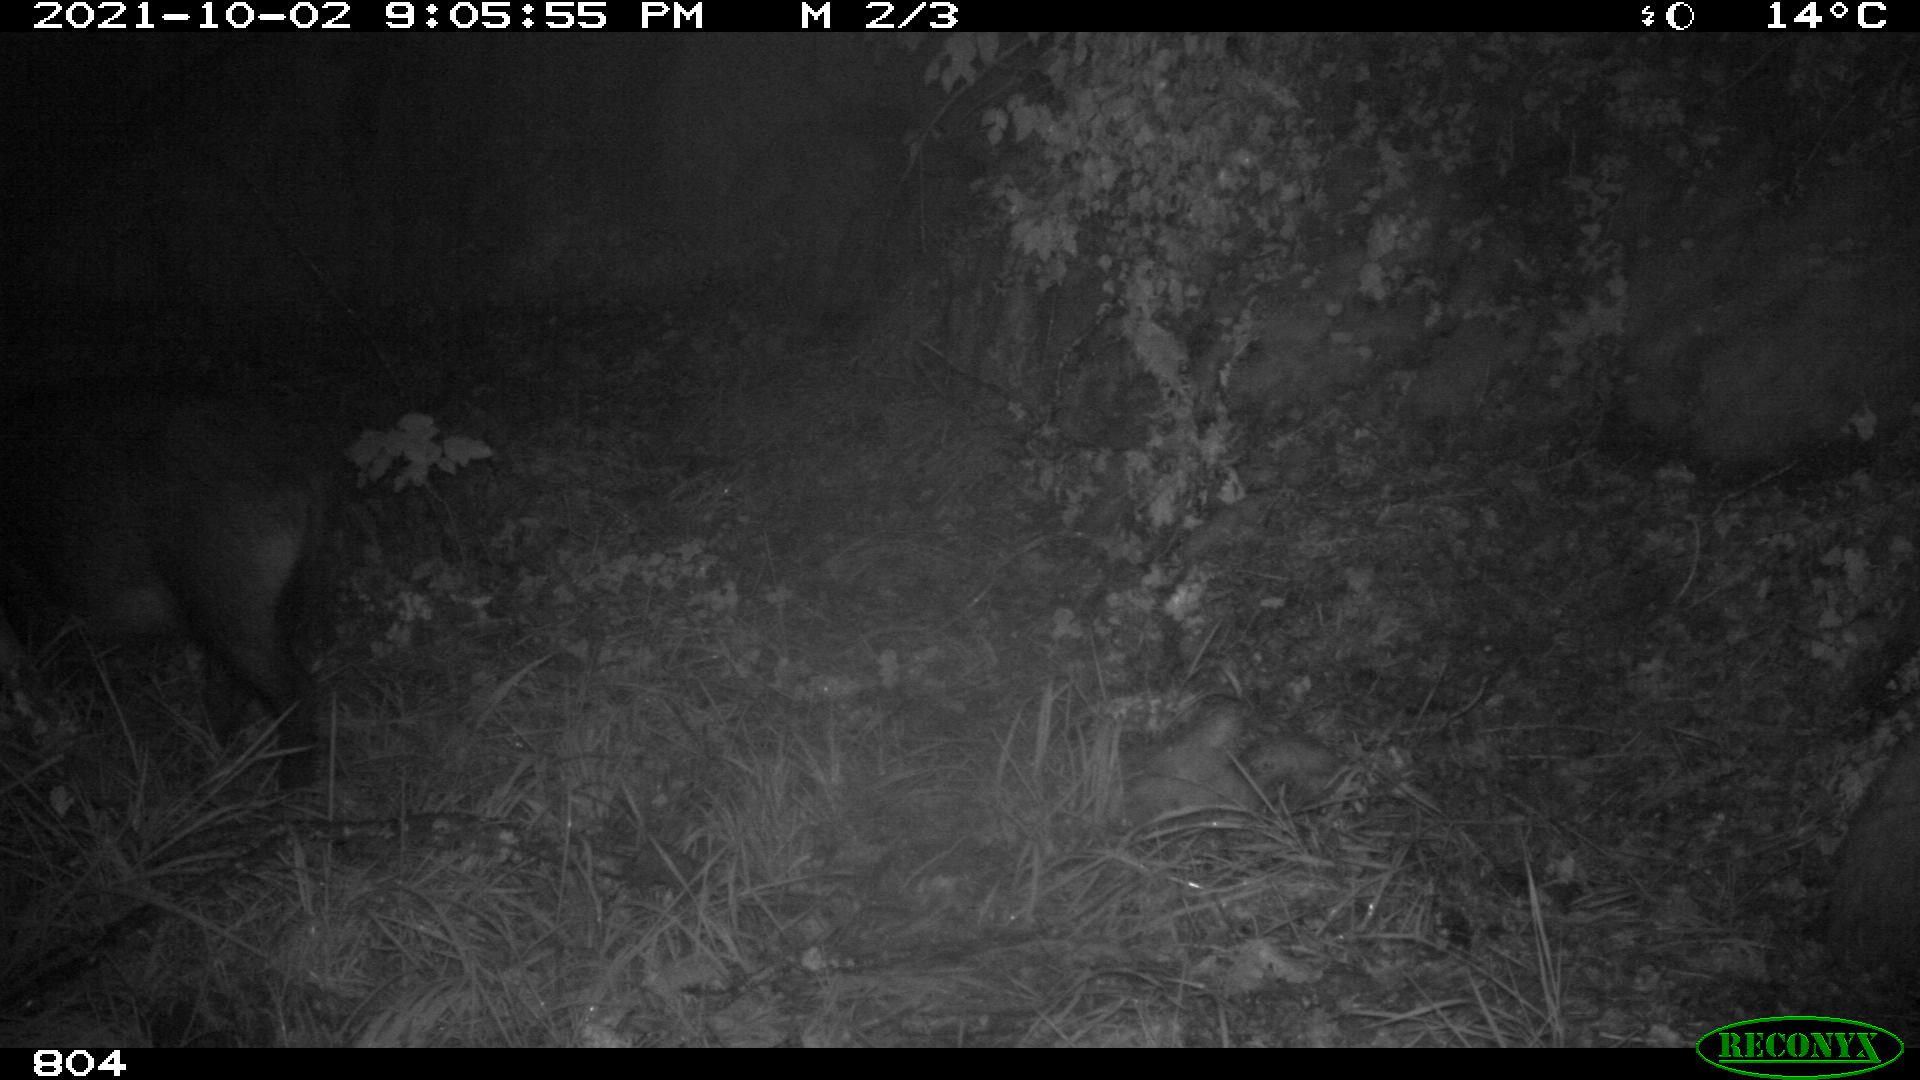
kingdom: Animalia
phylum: Chordata
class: Mammalia
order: Artiodactyla
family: Suidae
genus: Sus
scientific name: Sus scrofa
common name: Wild boar
